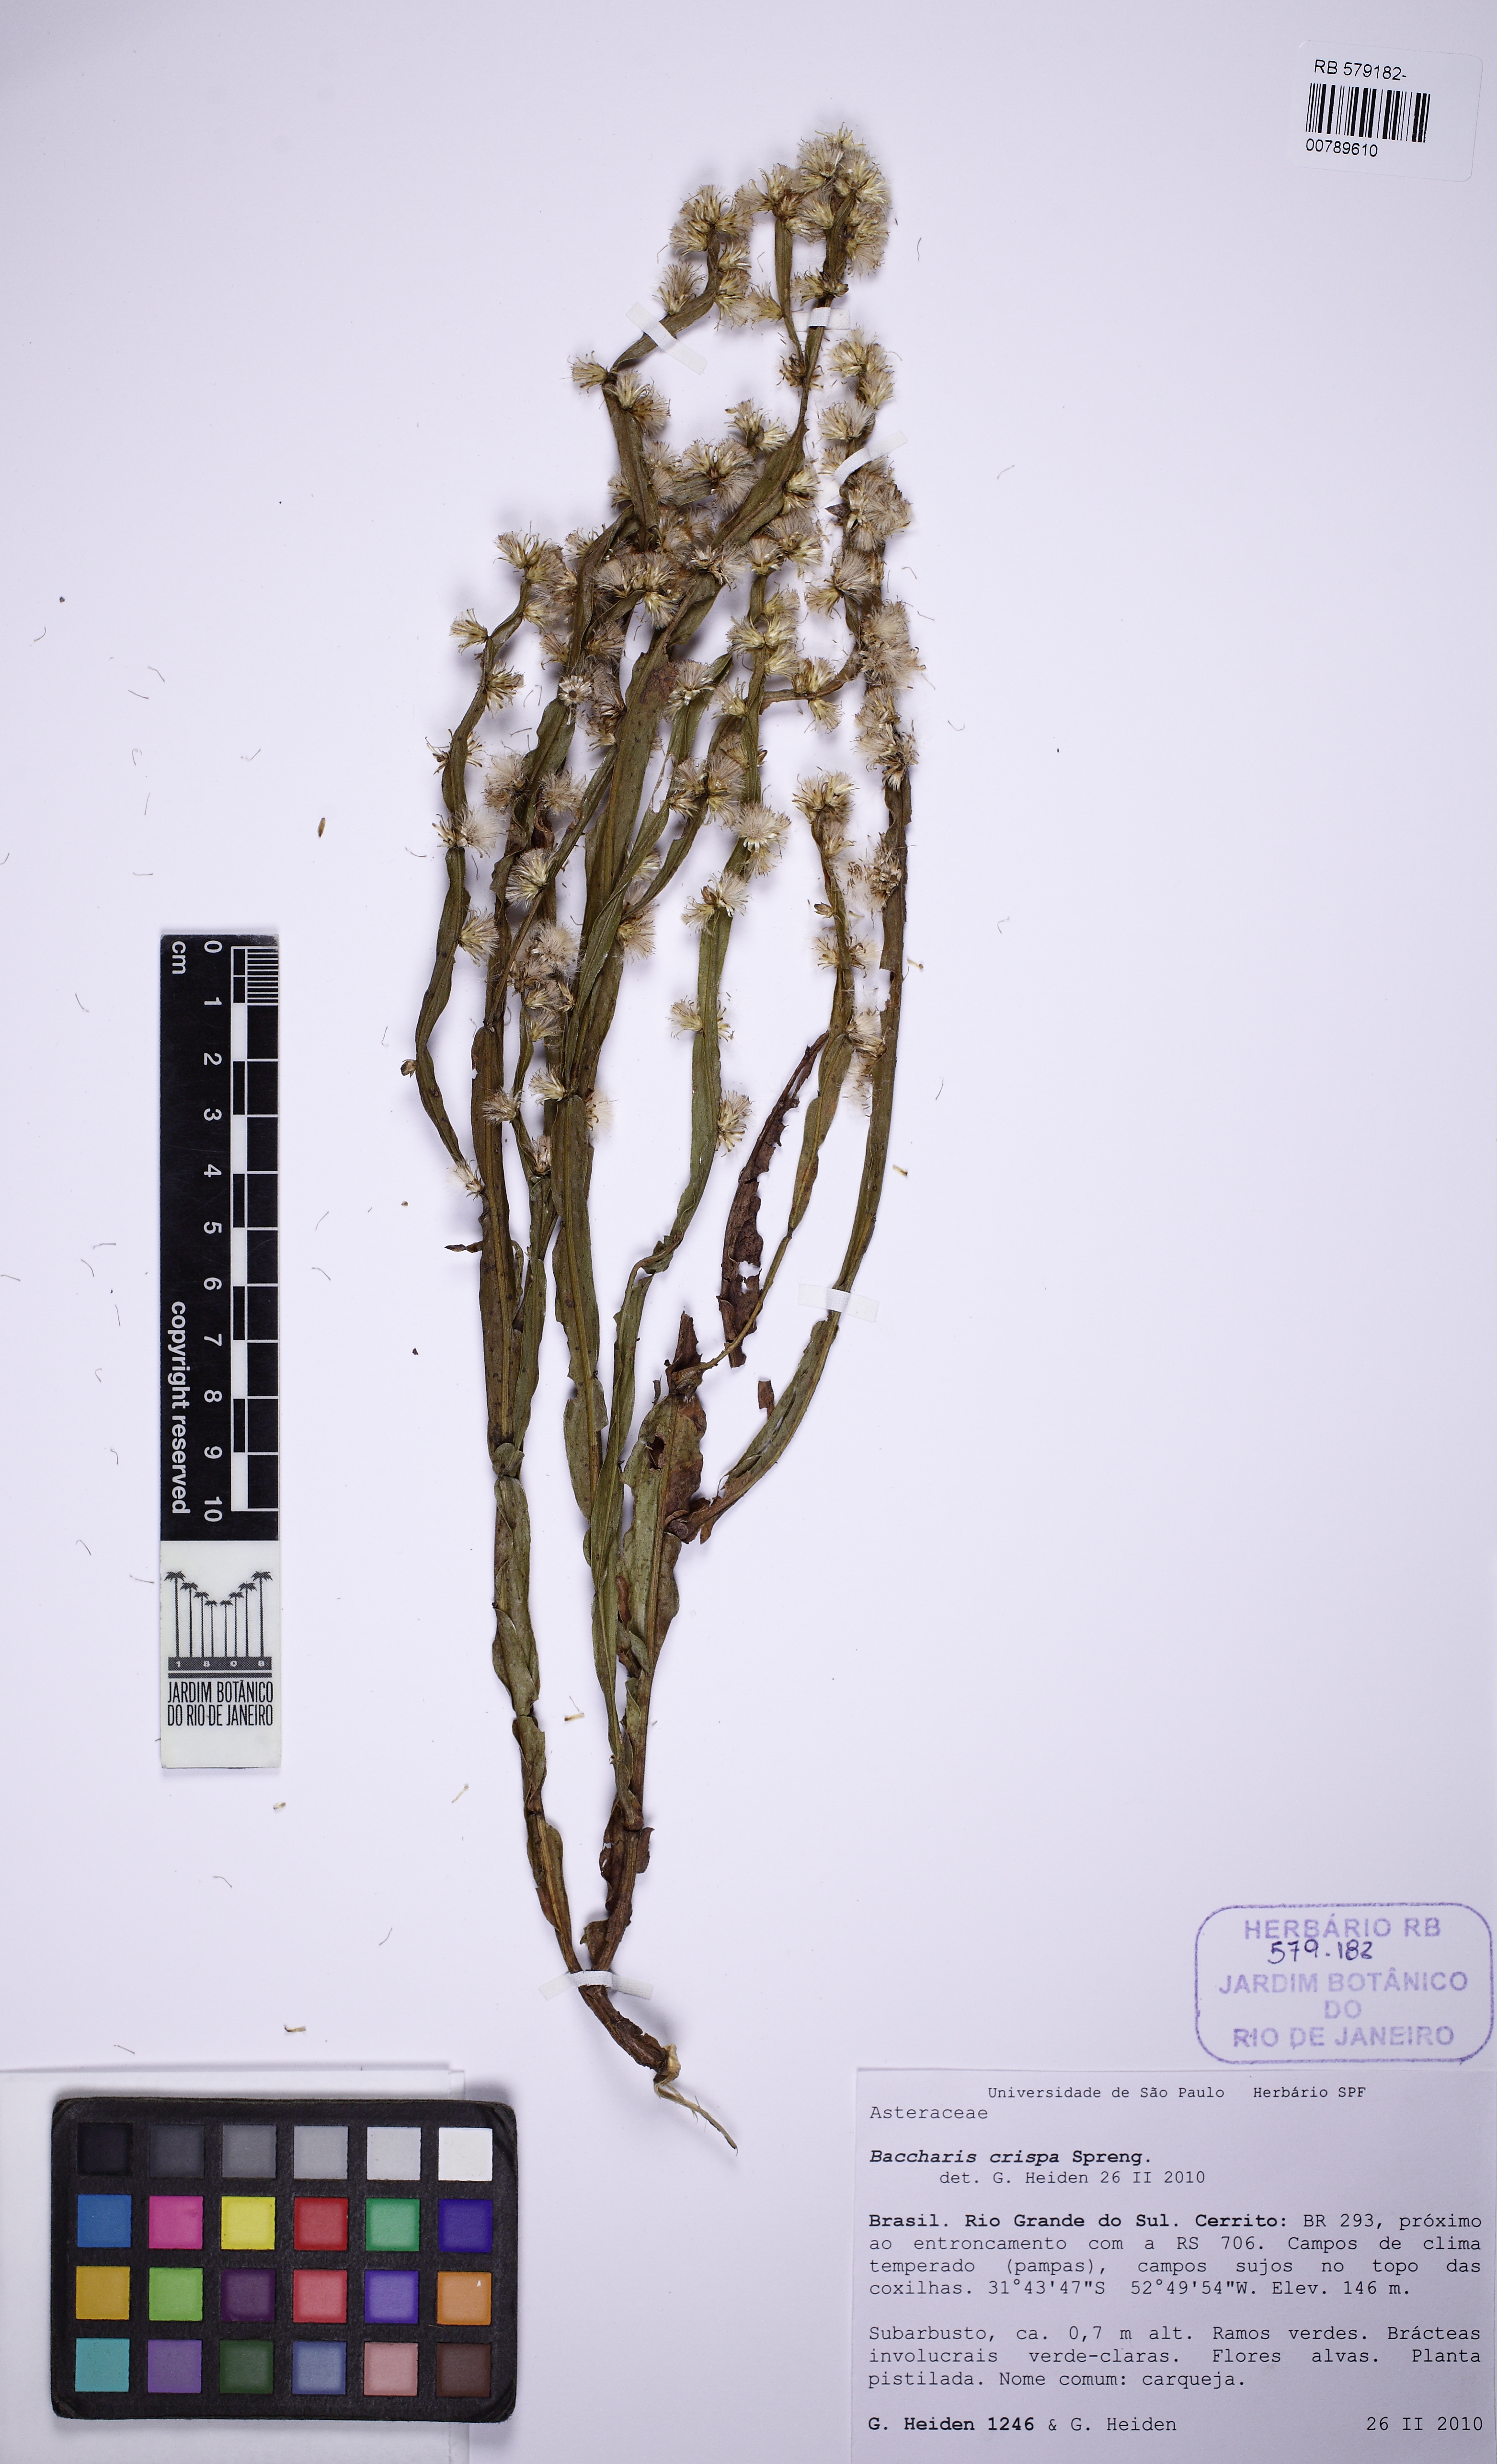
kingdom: Plantae
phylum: Tracheophyta
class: Magnoliopsida
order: Asterales
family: Asteraceae
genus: Baccharis
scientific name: Baccharis crispa
